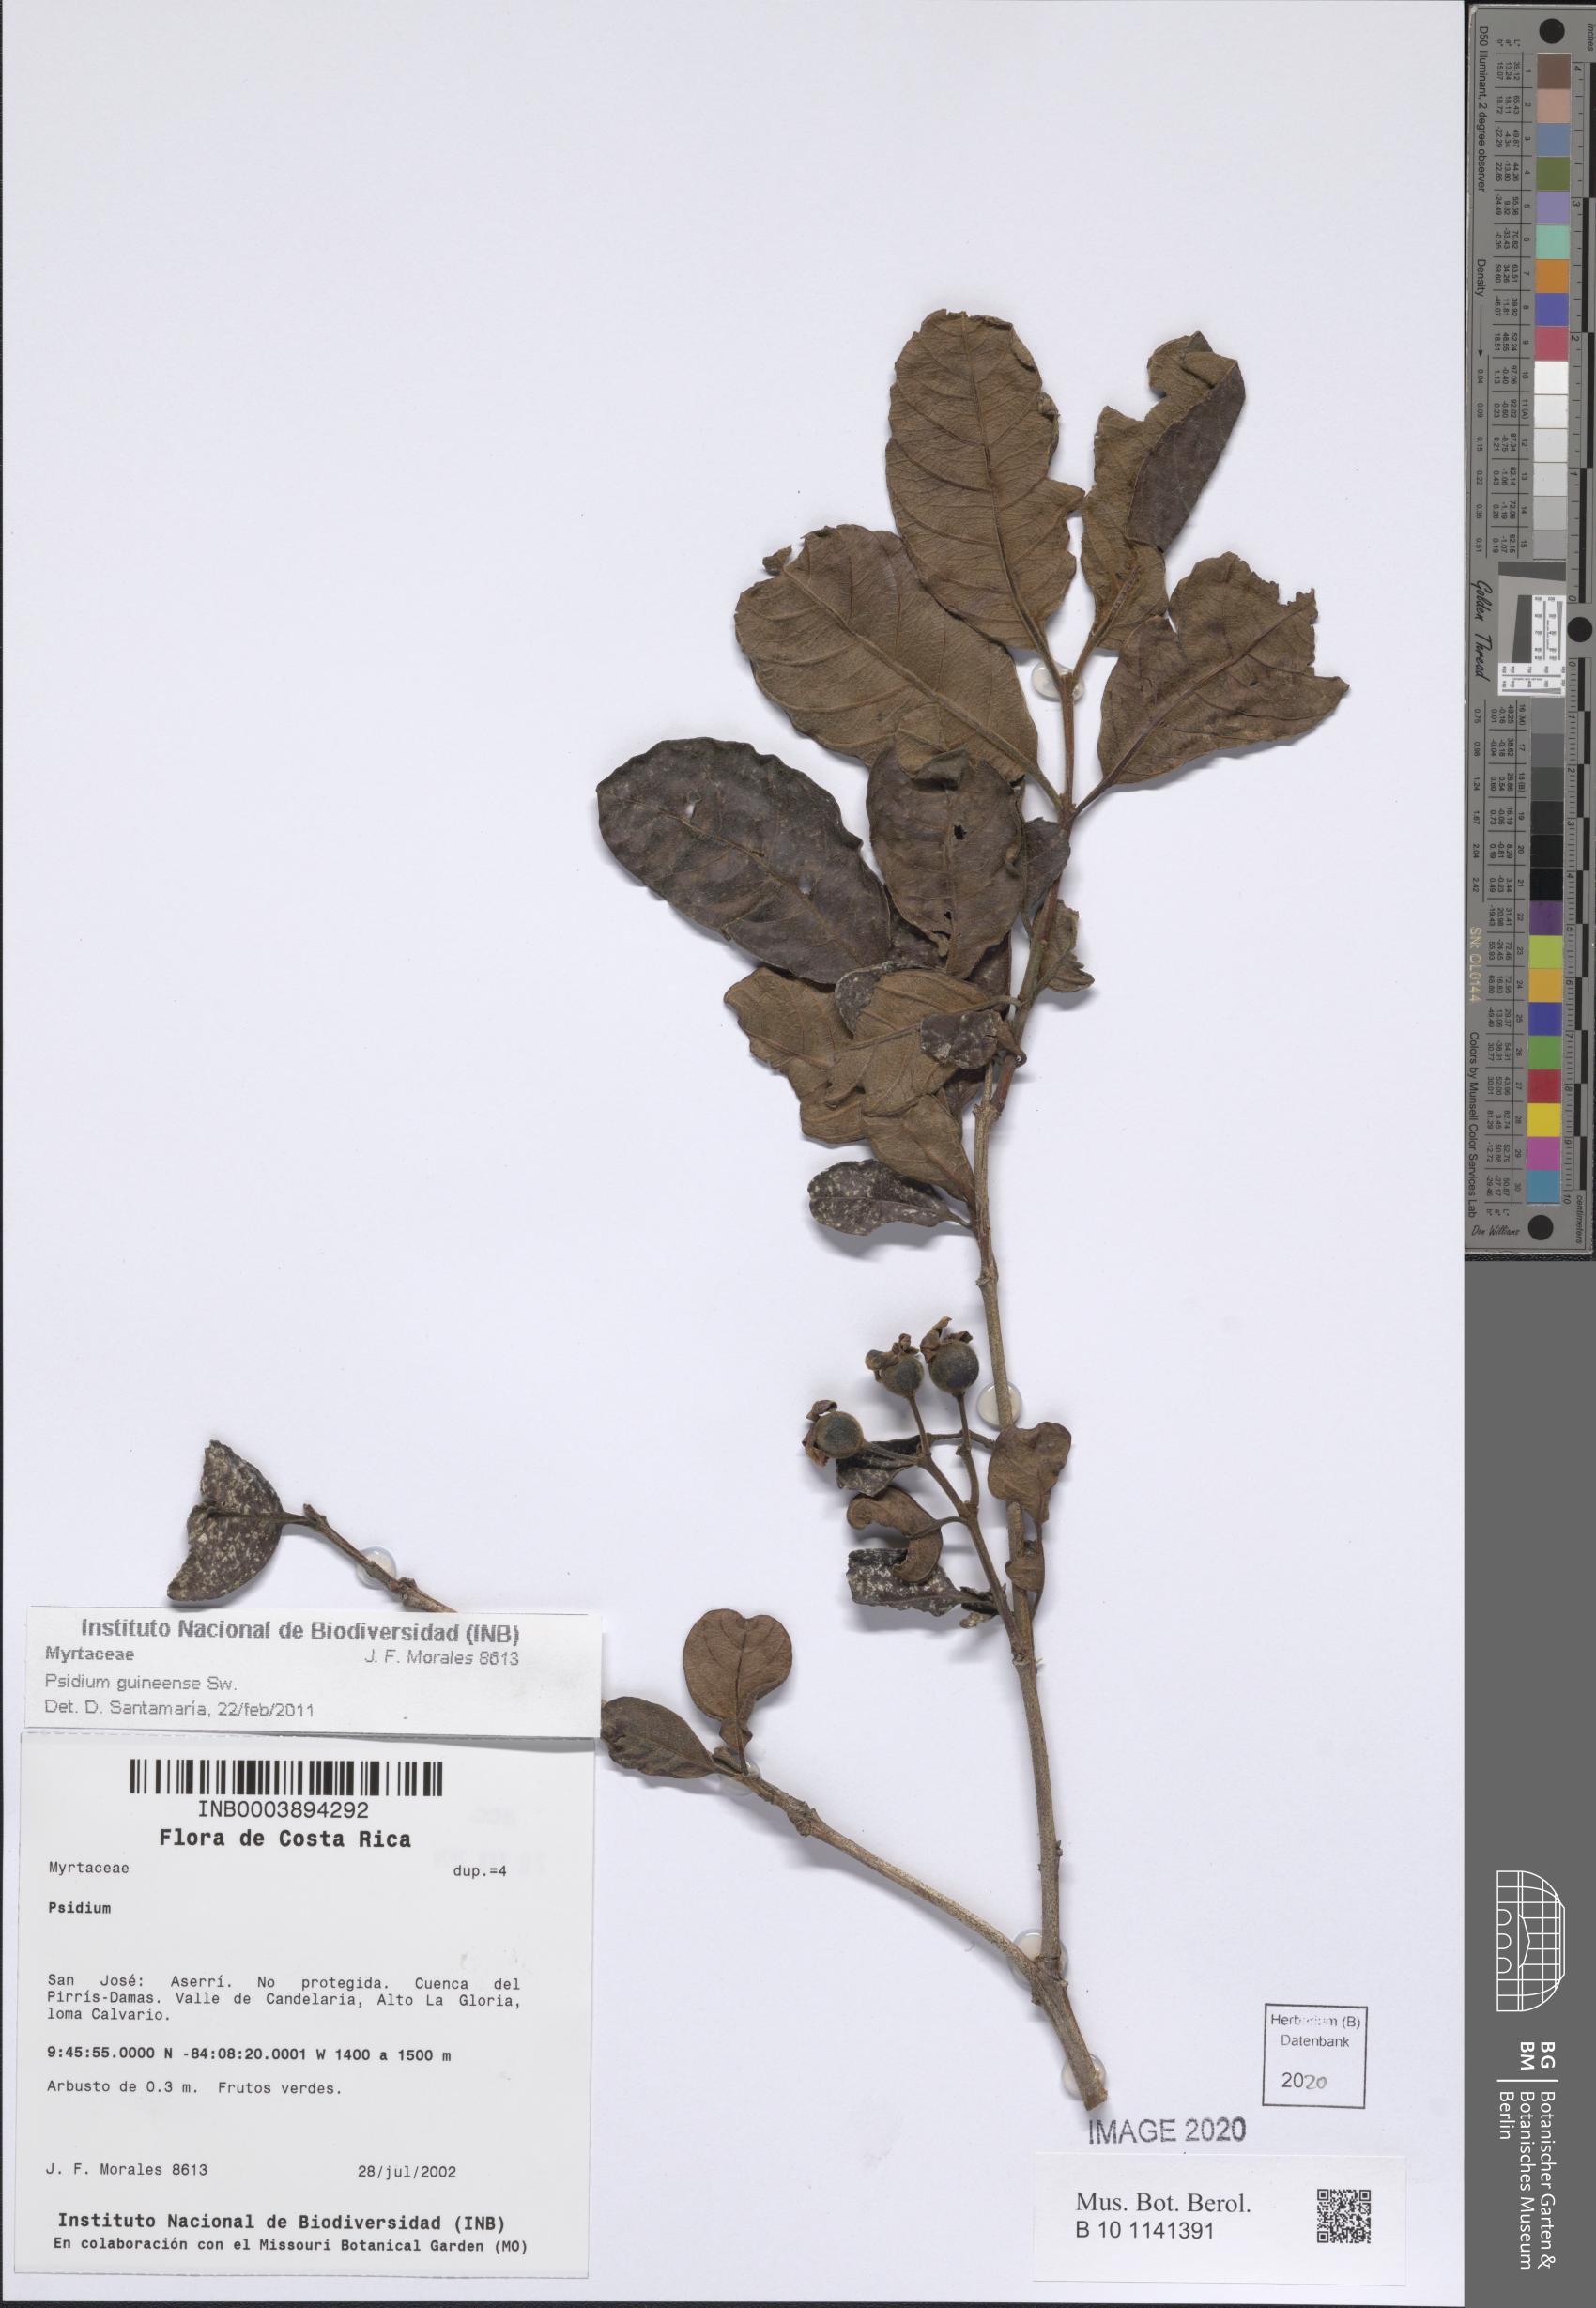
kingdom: Plantae
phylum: Tracheophyta
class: Magnoliopsida
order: Myrtales
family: Myrtaceae
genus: Psidium
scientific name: Psidium guineense
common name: Brazilian guava
